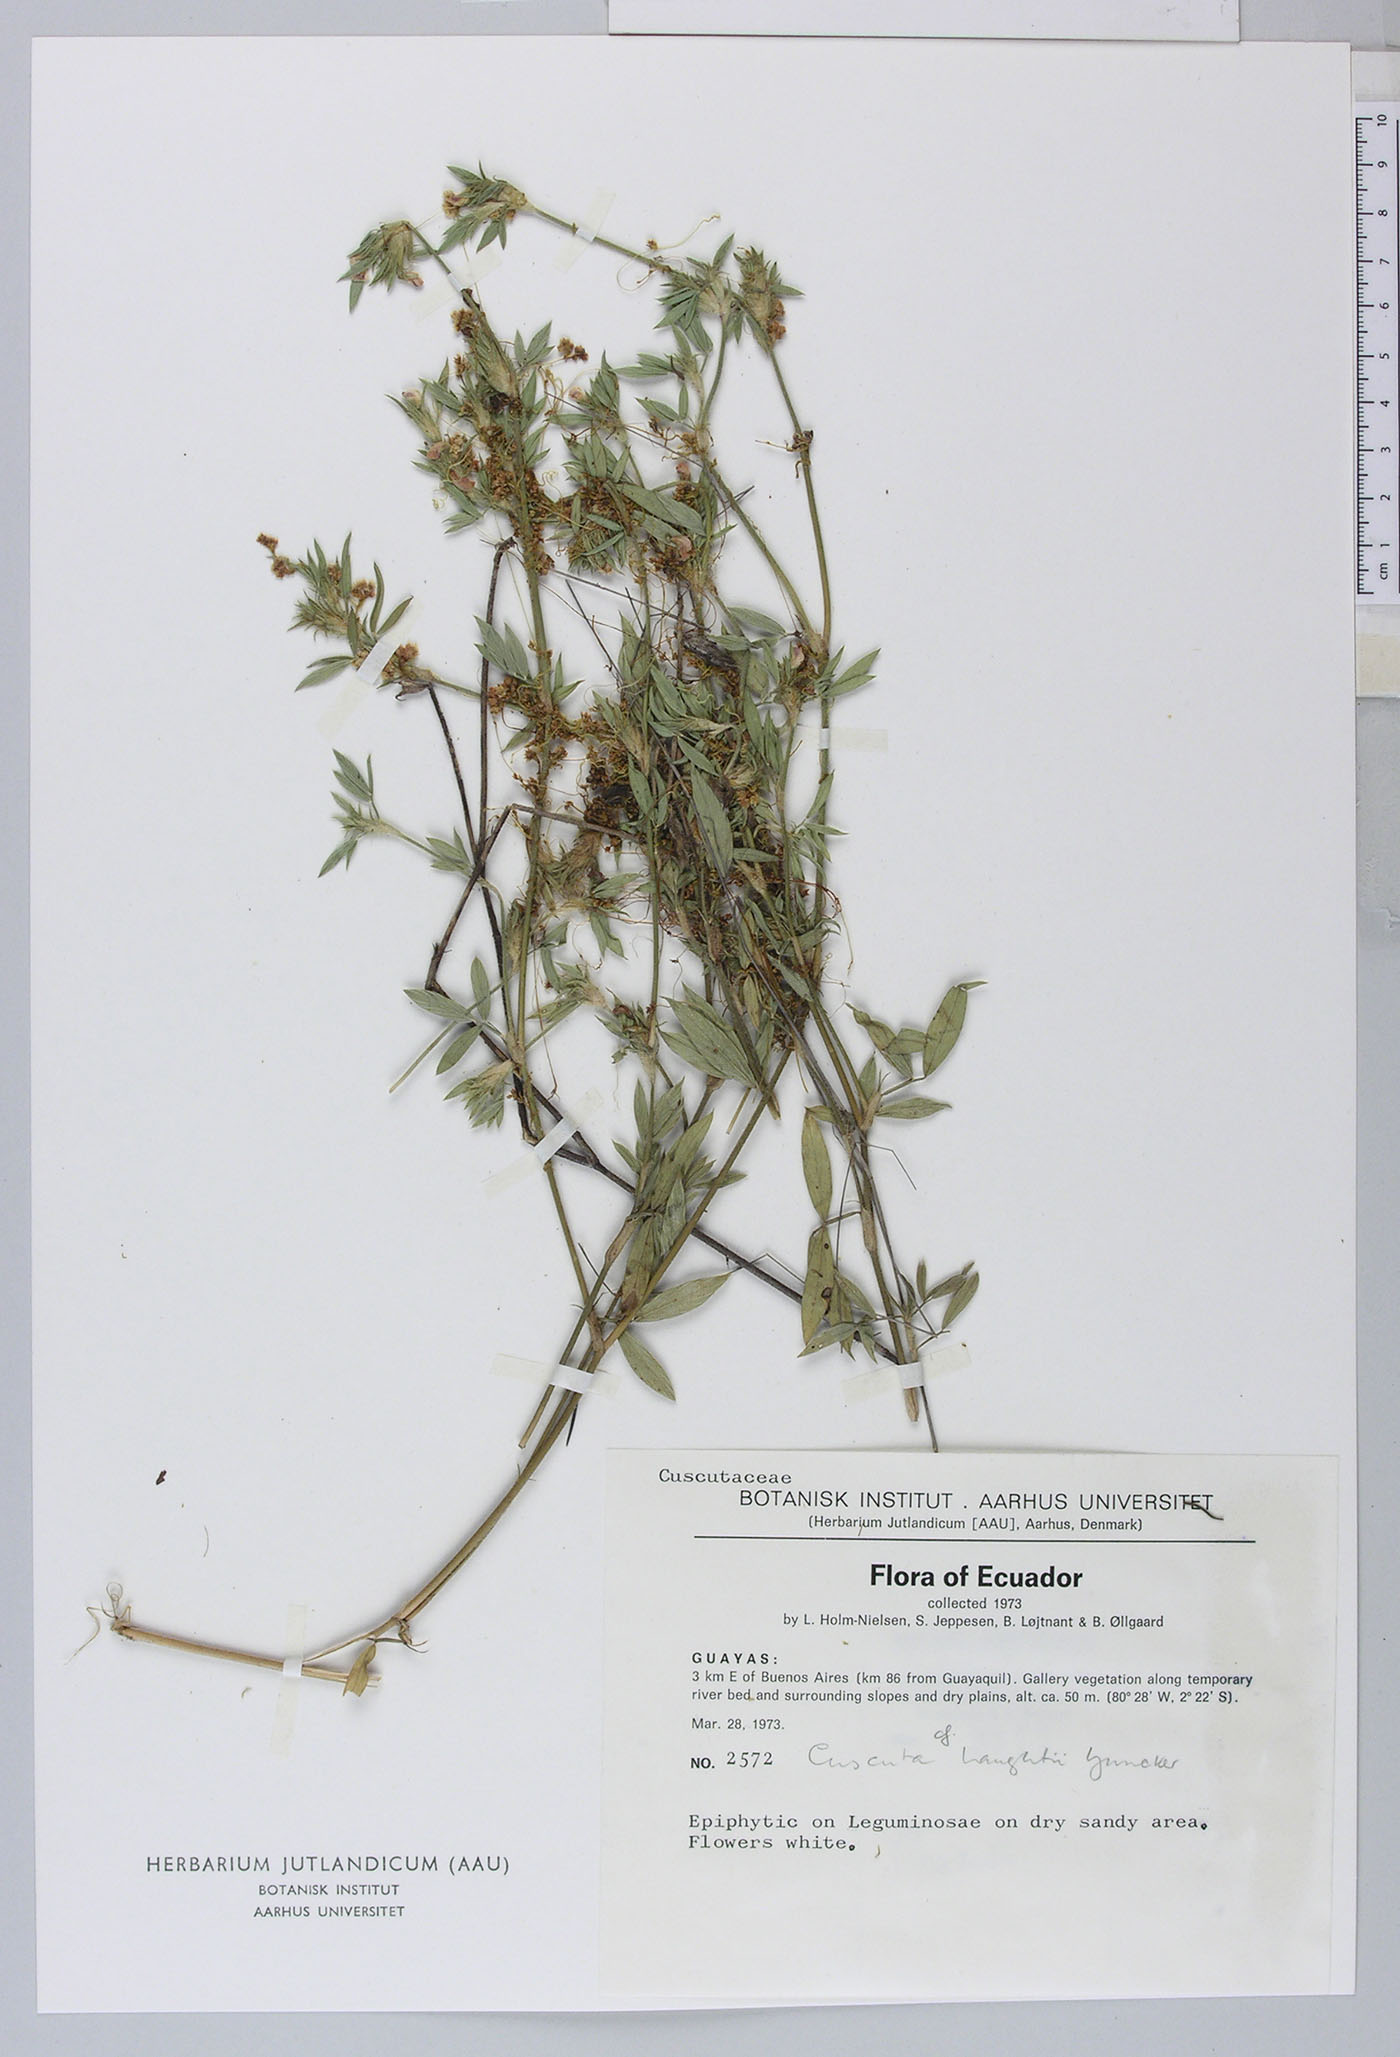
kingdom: Plantae
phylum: Tracheophyta
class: Magnoliopsida
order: Solanales
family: Convolvulaceae
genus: Cuscuta
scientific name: Cuscuta haughtii
